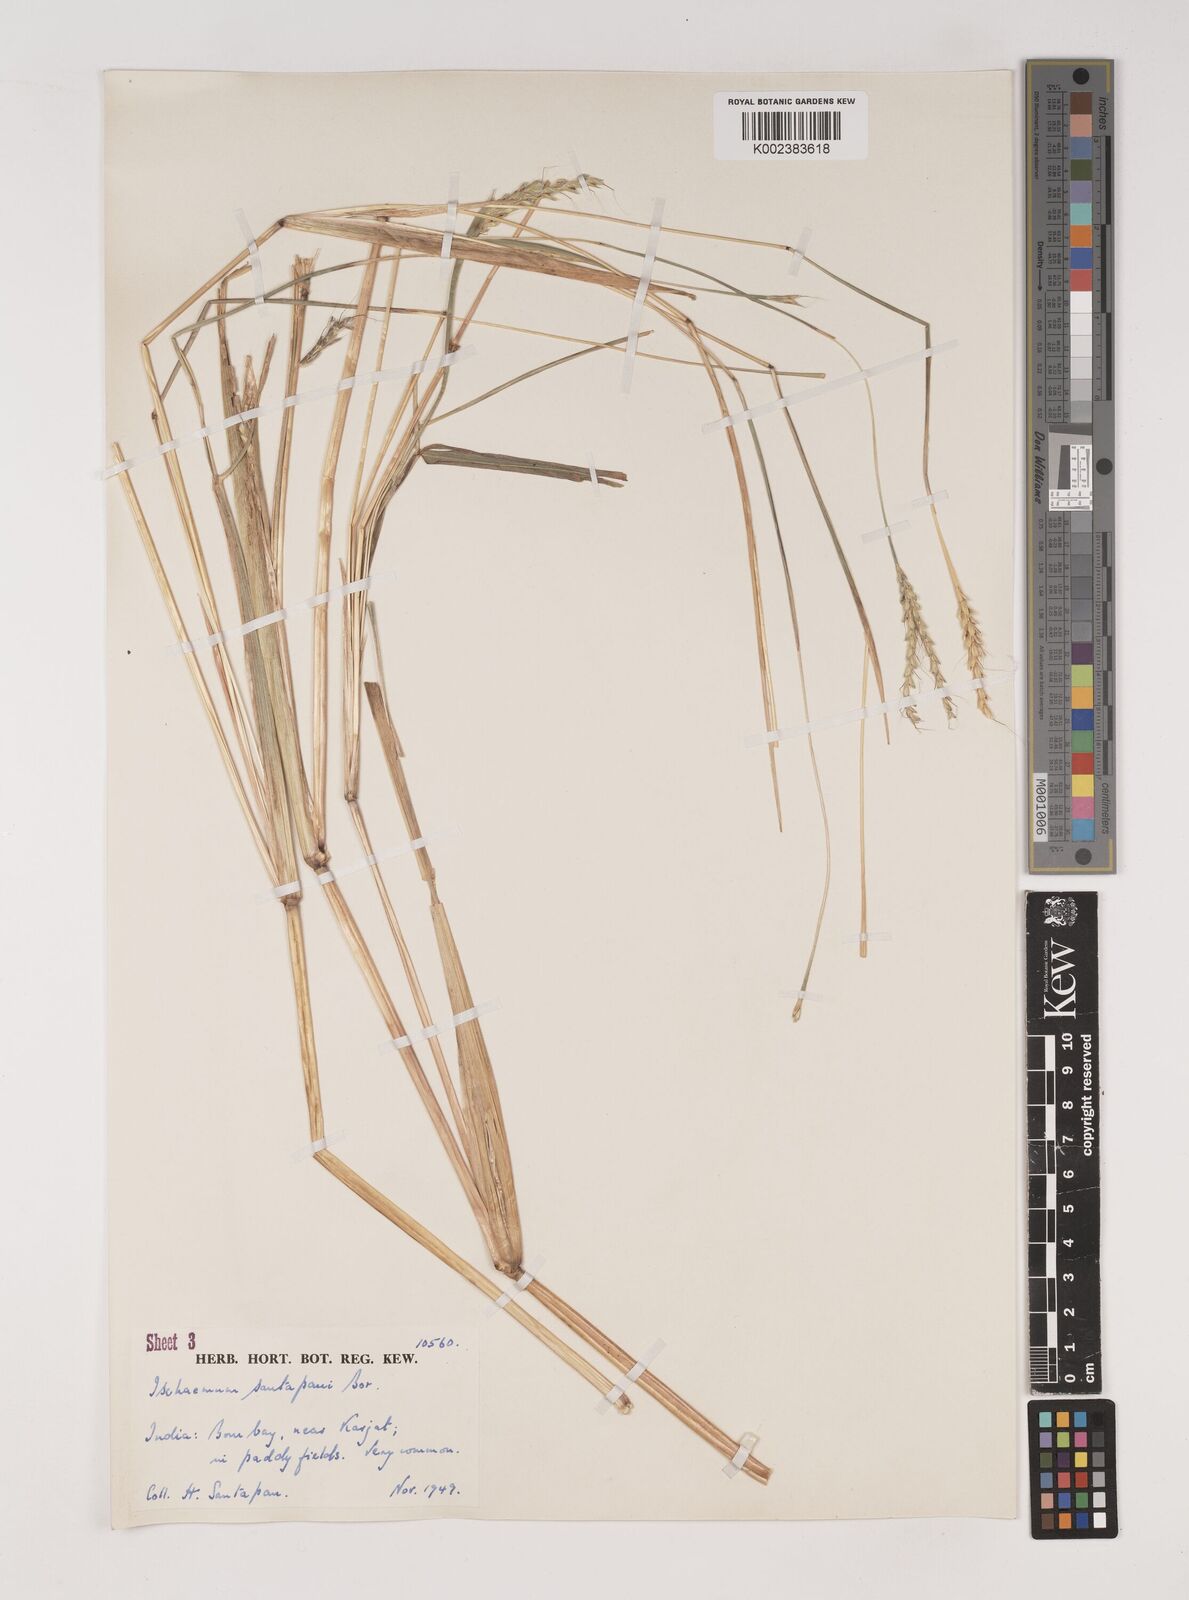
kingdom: Plantae
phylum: Tracheophyta
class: Liliopsida
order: Poales
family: Poaceae
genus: Ischaemum
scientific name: Ischaemum santapaui
